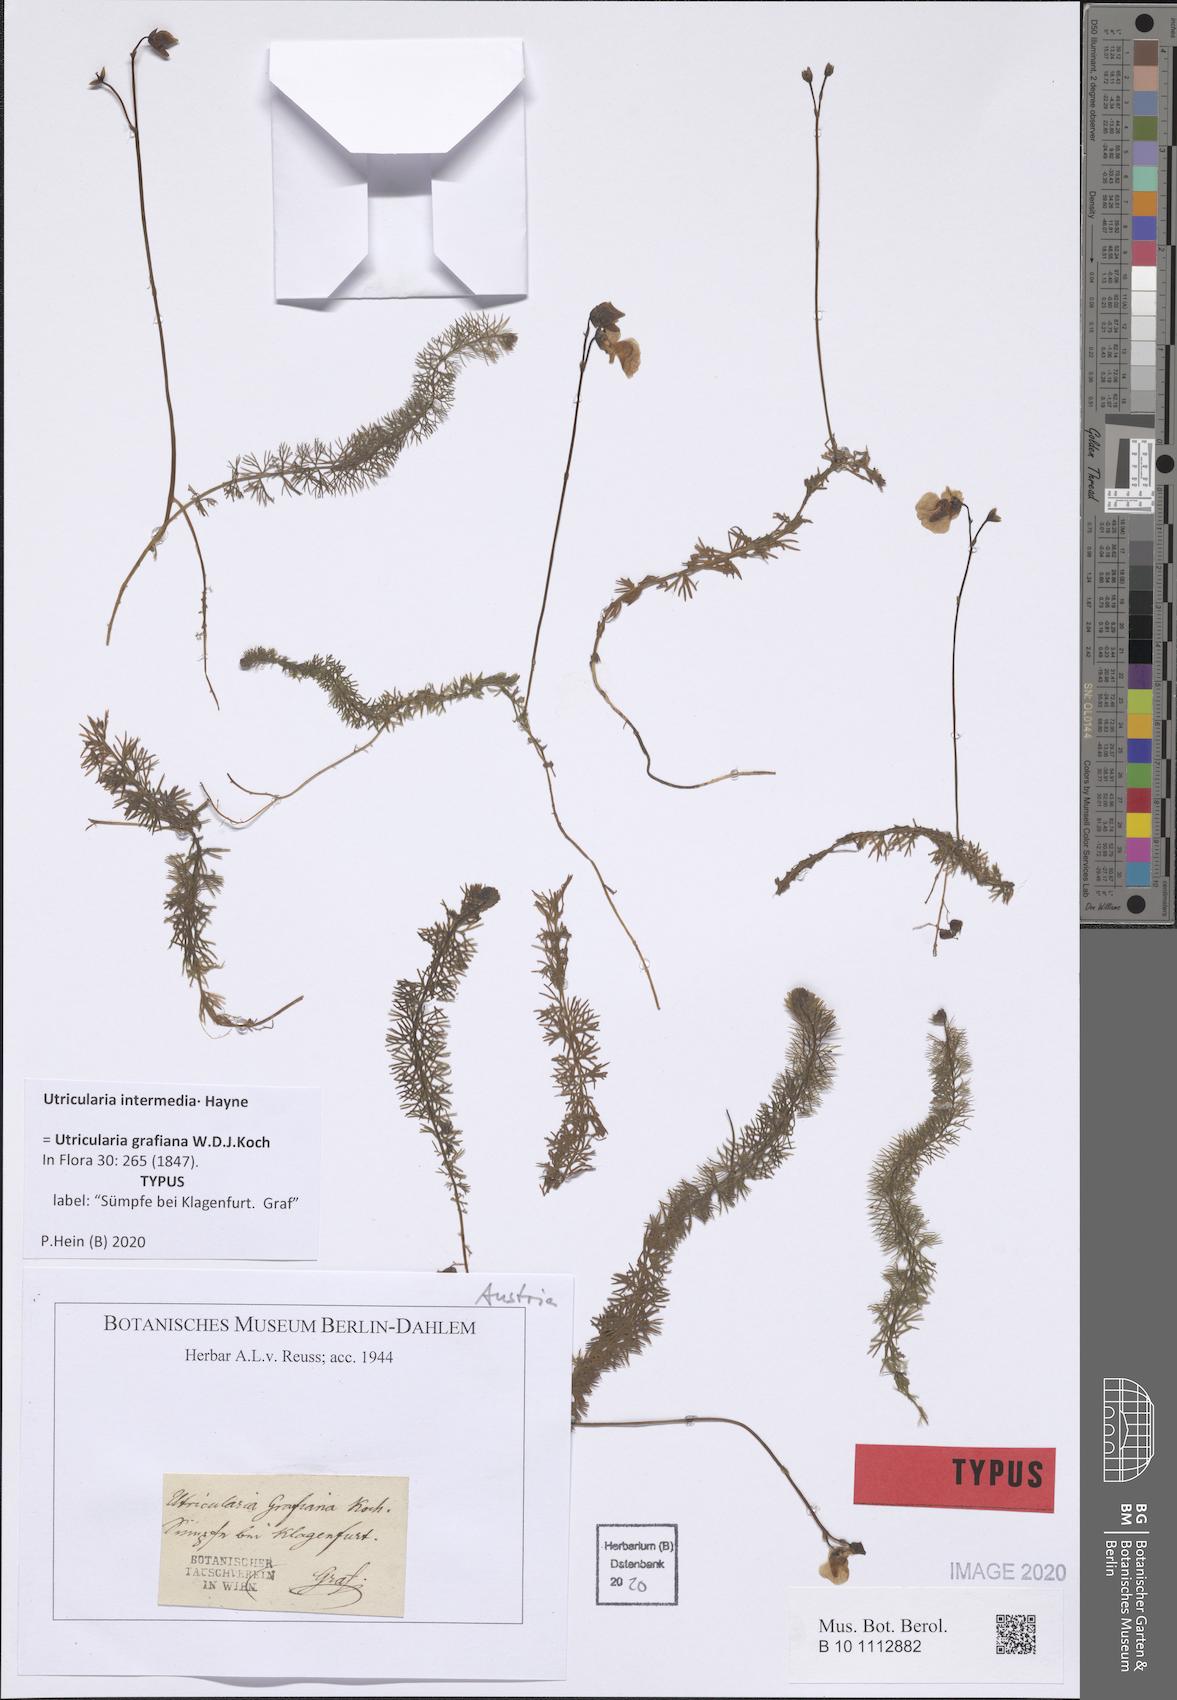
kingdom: Plantae
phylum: Tracheophyta
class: Magnoliopsida
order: Lamiales
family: Lentibulariaceae
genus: Utricularia
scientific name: Utricularia intermedia
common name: Intermediate bladderwort
